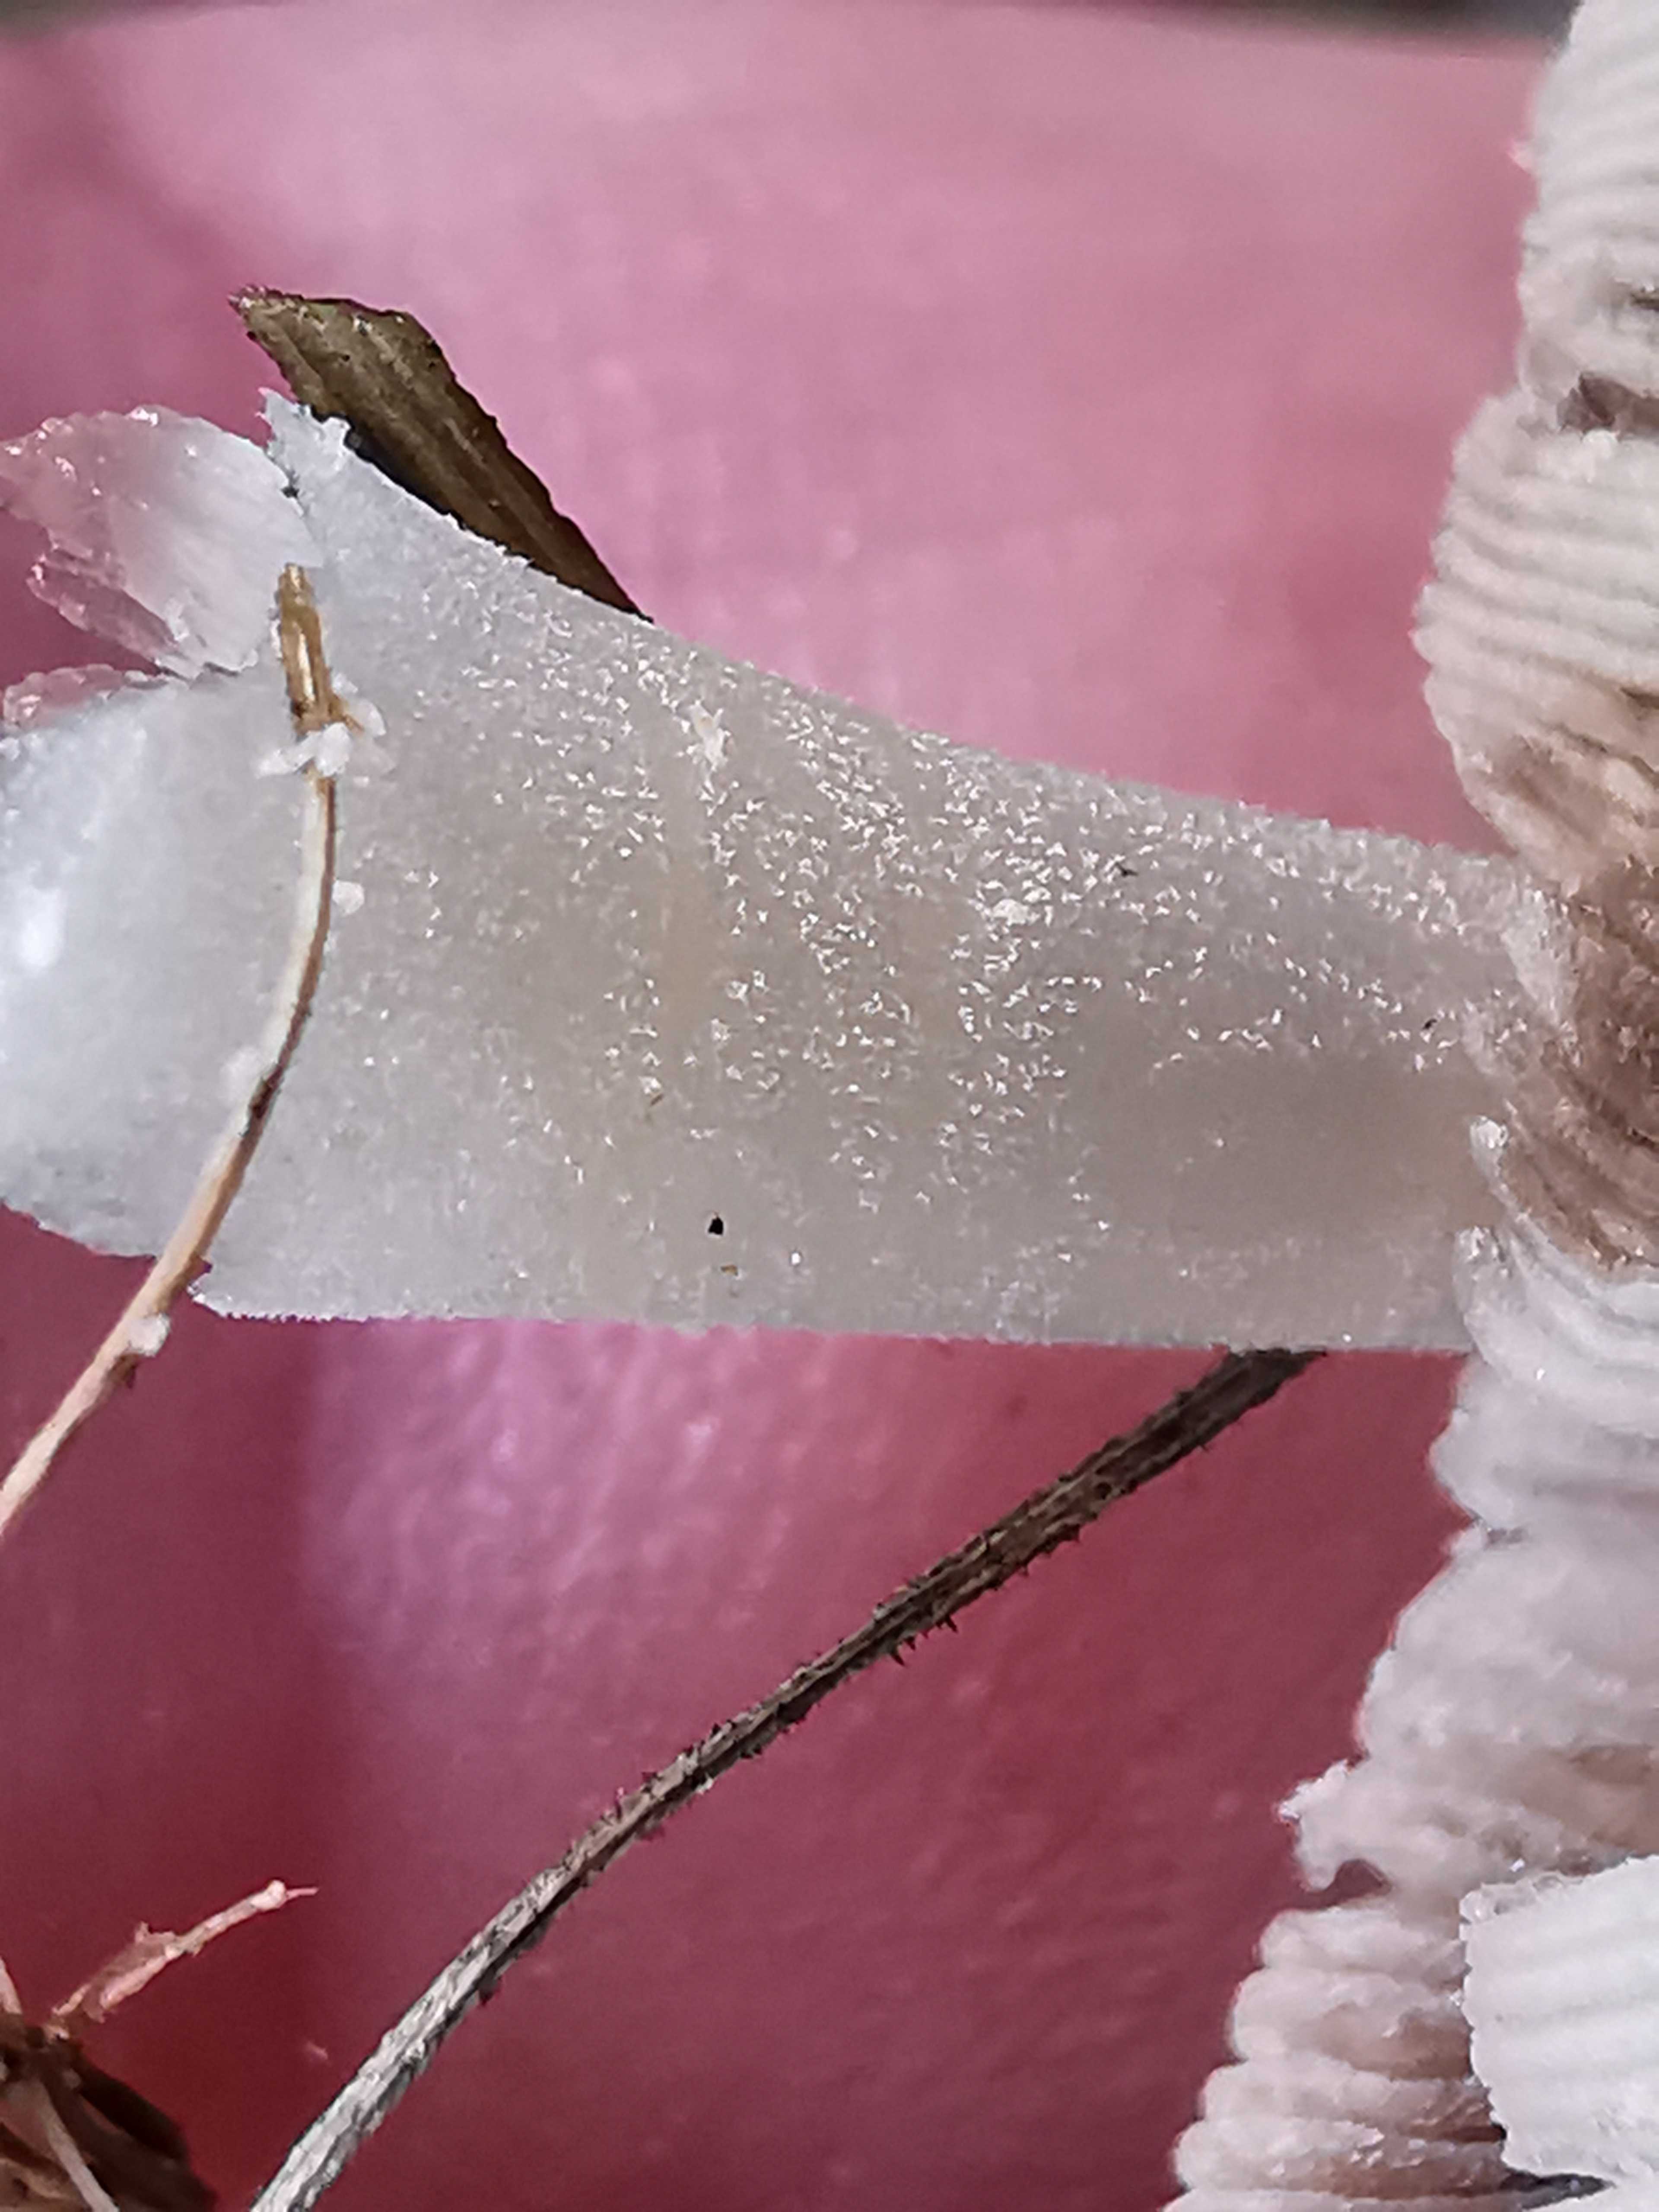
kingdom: Fungi
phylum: Basidiomycota
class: Agaricomycetes
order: Agaricales
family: Psathyrellaceae
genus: Coprinellus
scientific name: Coprinellus micaceus
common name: glimmer-blækhat
